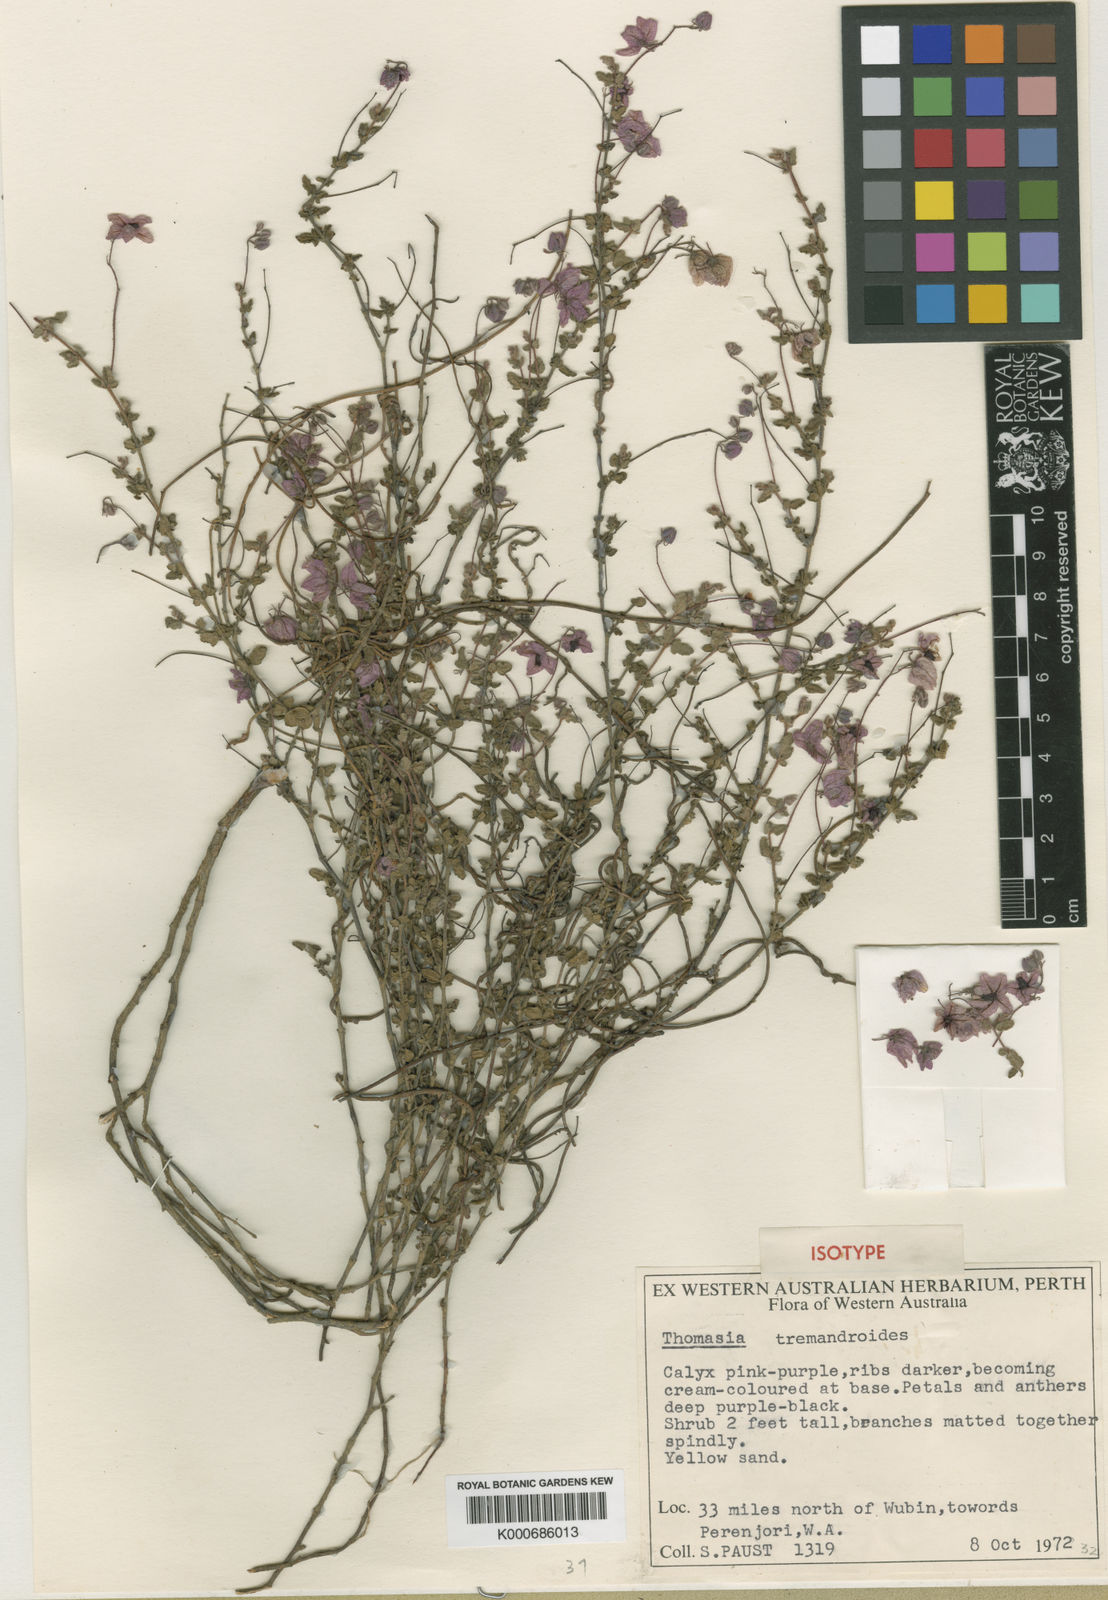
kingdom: Plantae
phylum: Tracheophyta
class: Magnoliopsida
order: Malvales
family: Malvaceae
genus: Thomasia
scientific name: Thomasia tremandroides
